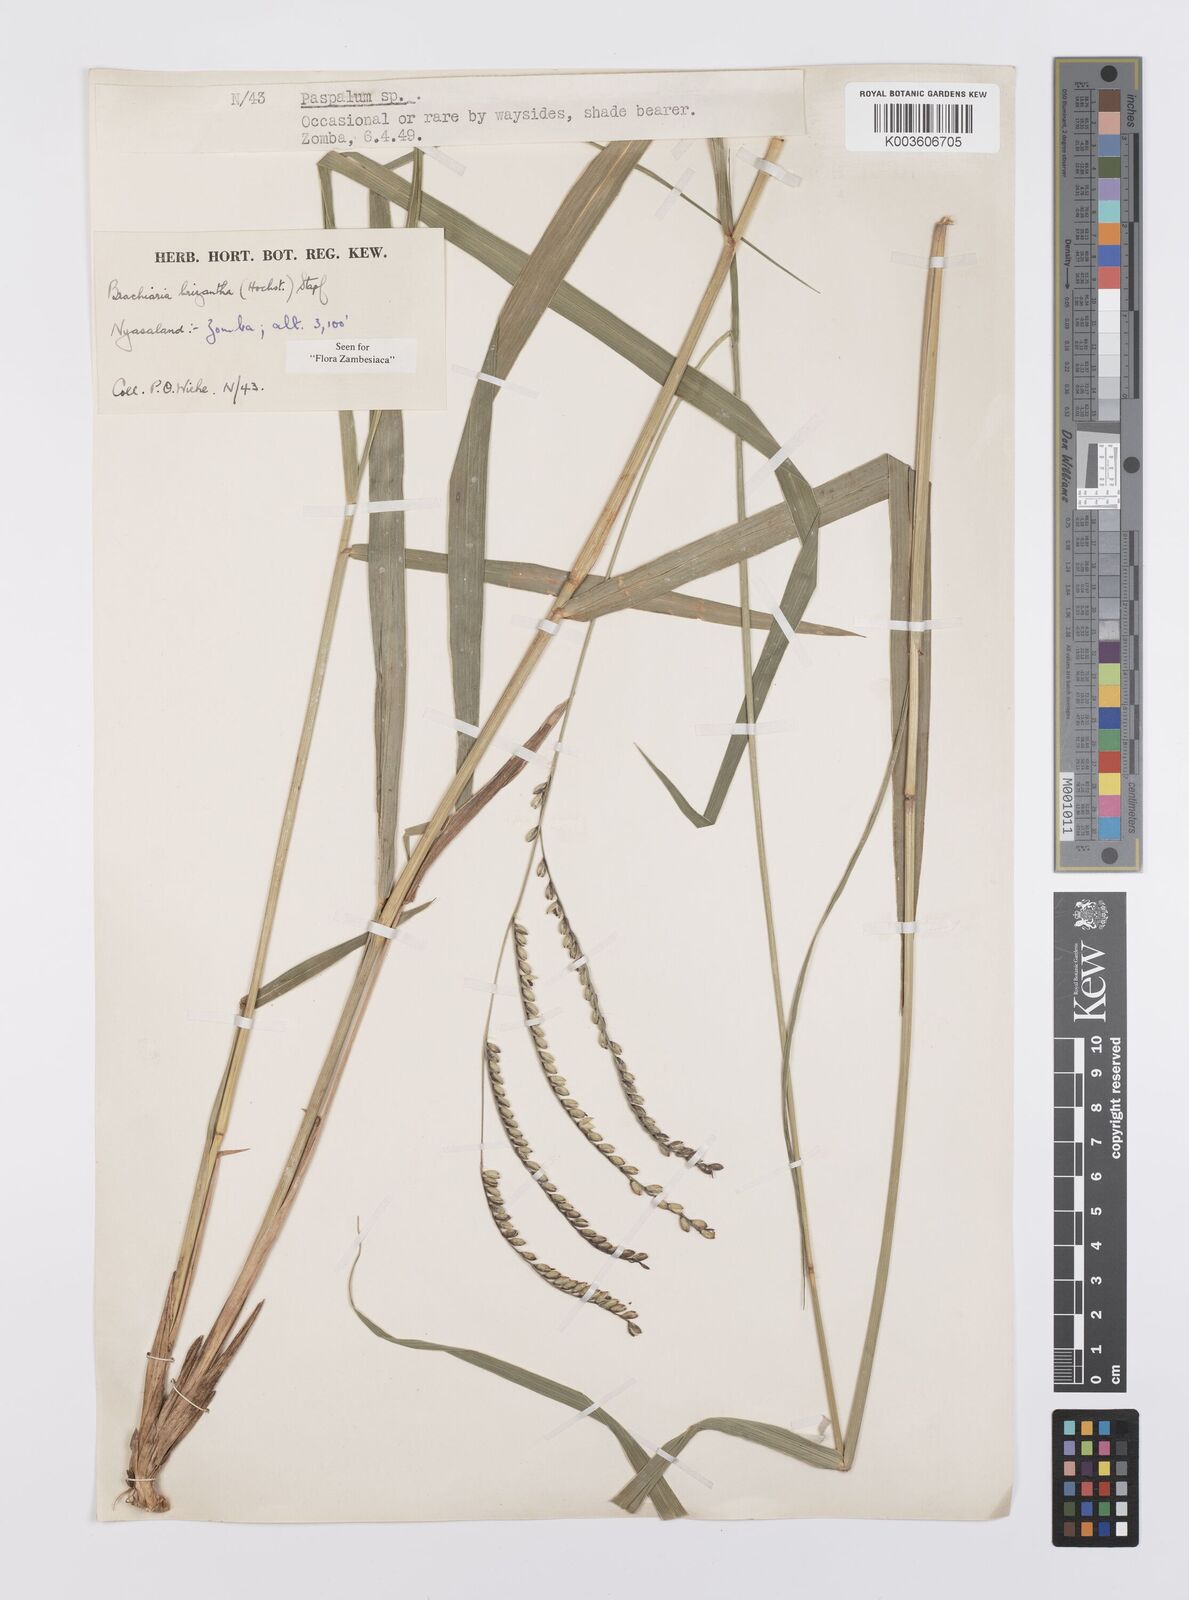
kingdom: Plantae
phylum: Tracheophyta
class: Liliopsida
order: Poales
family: Poaceae
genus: Urochloa
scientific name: Urochloa brizantha
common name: Palisade signalgrass
